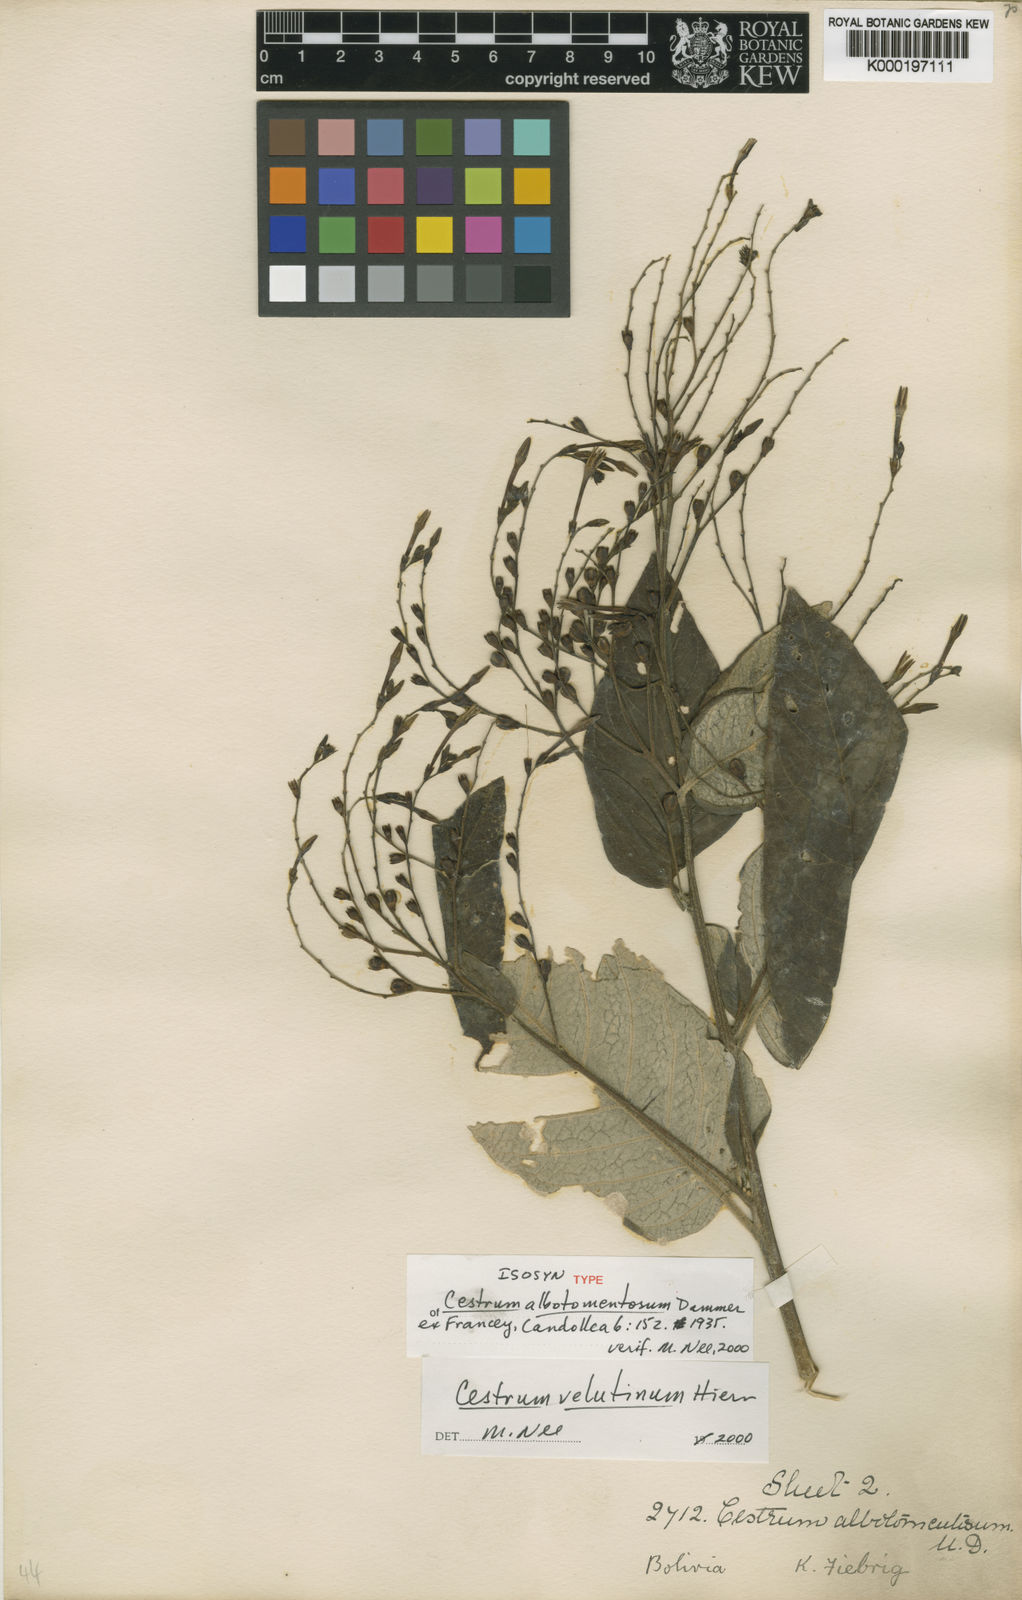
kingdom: Plantae
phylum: Tracheophyta
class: Magnoliopsida
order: Solanales
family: Solanaceae
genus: Cestrum
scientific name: Cestrum velutinum
